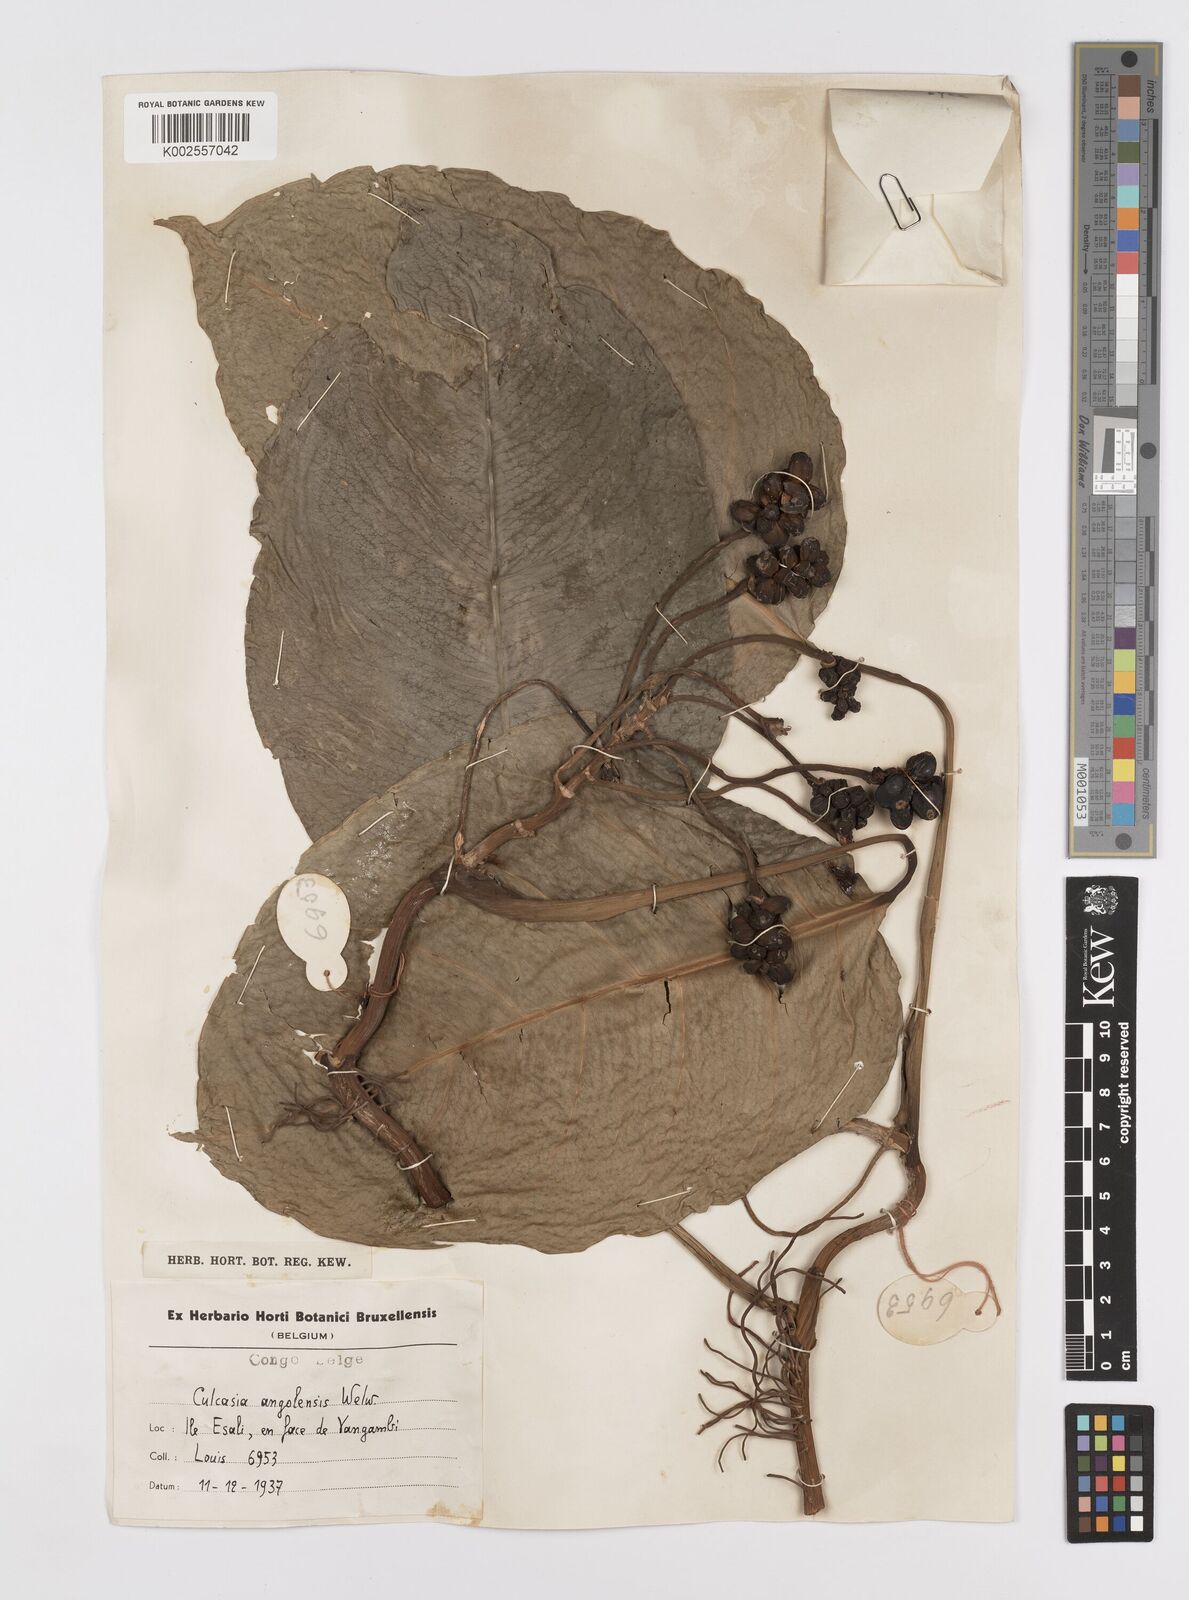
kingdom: Plantae
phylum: Tracheophyta
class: Liliopsida
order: Alismatales
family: Araceae
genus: Culcasia
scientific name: Culcasia angolensis
